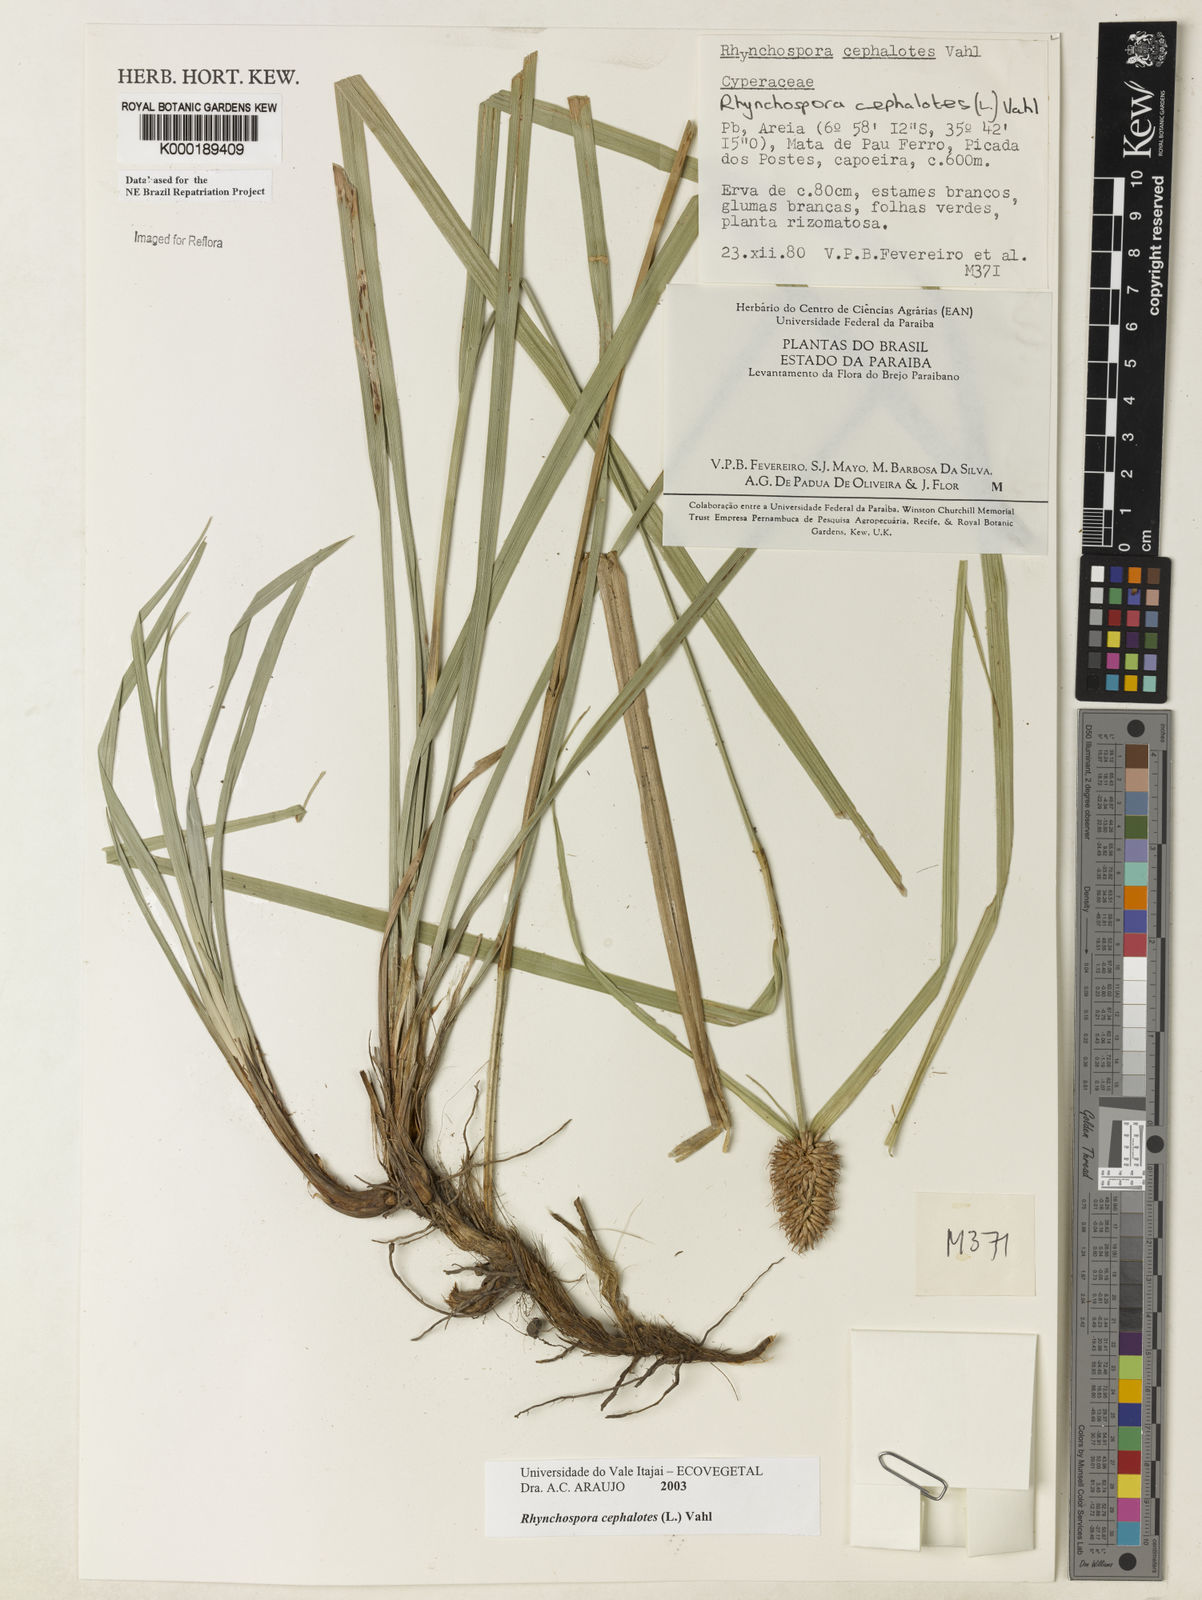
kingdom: Plantae
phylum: Tracheophyta
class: Liliopsida
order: Poales
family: Cyperaceae
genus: Rhynchospora
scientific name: Rhynchospora cephalotes
